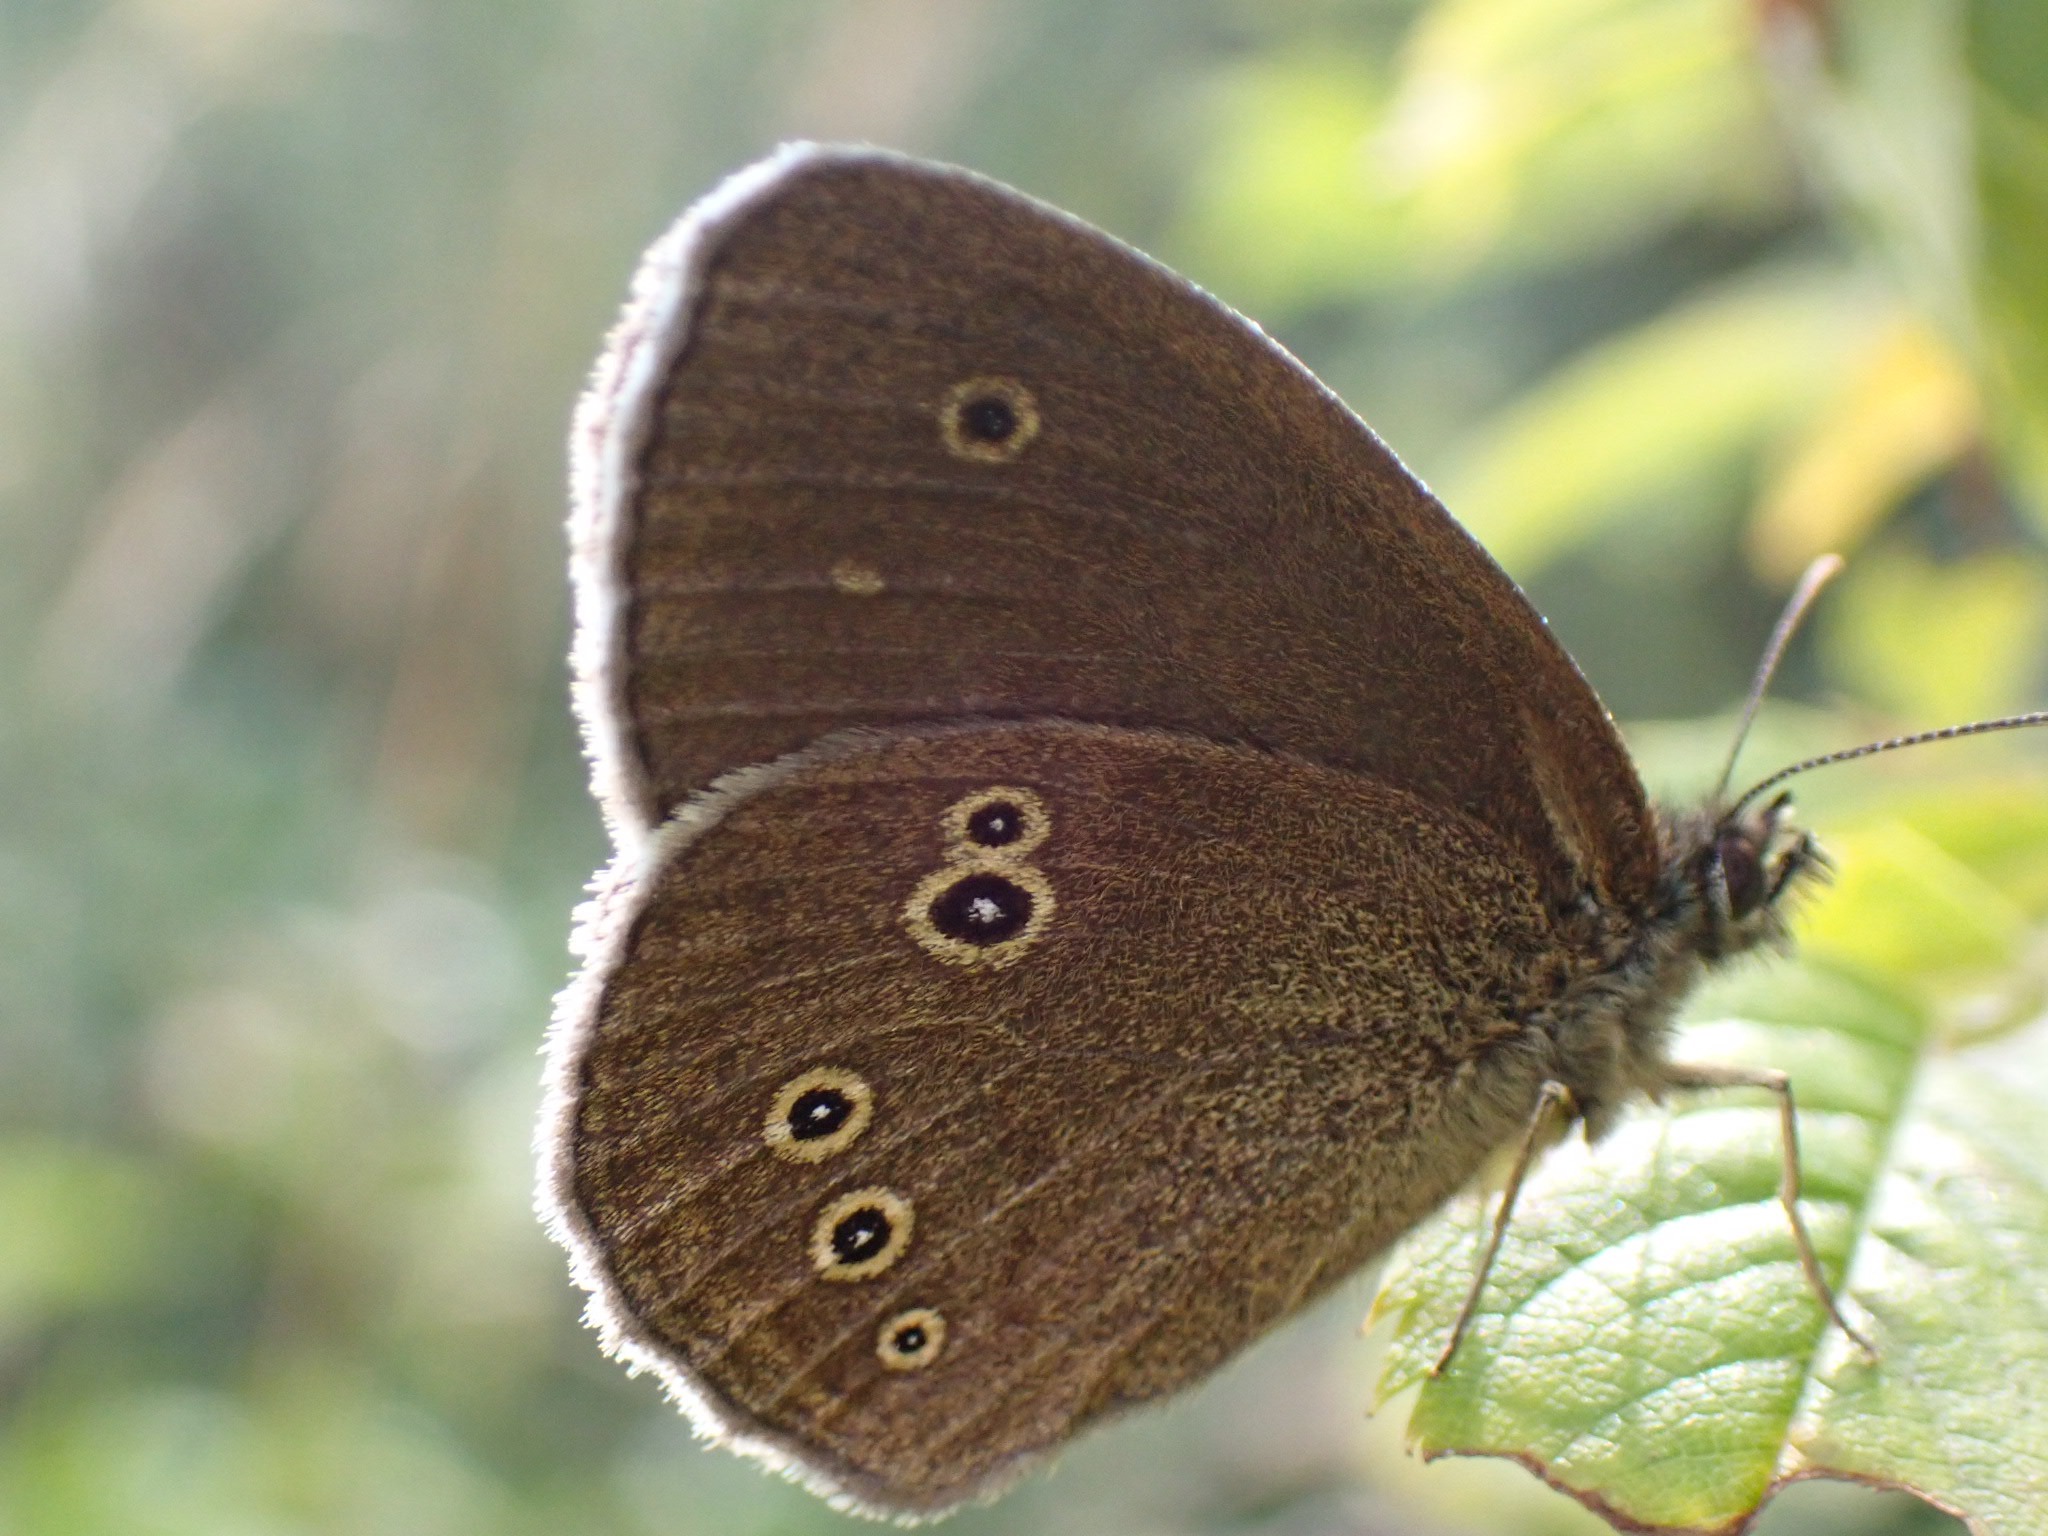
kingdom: Animalia
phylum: Arthropoda
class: Insecta
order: Lepidoptera
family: Nymphalidae
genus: Aphantopus
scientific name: Aphantopus hyperantus
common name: Engrandøje
